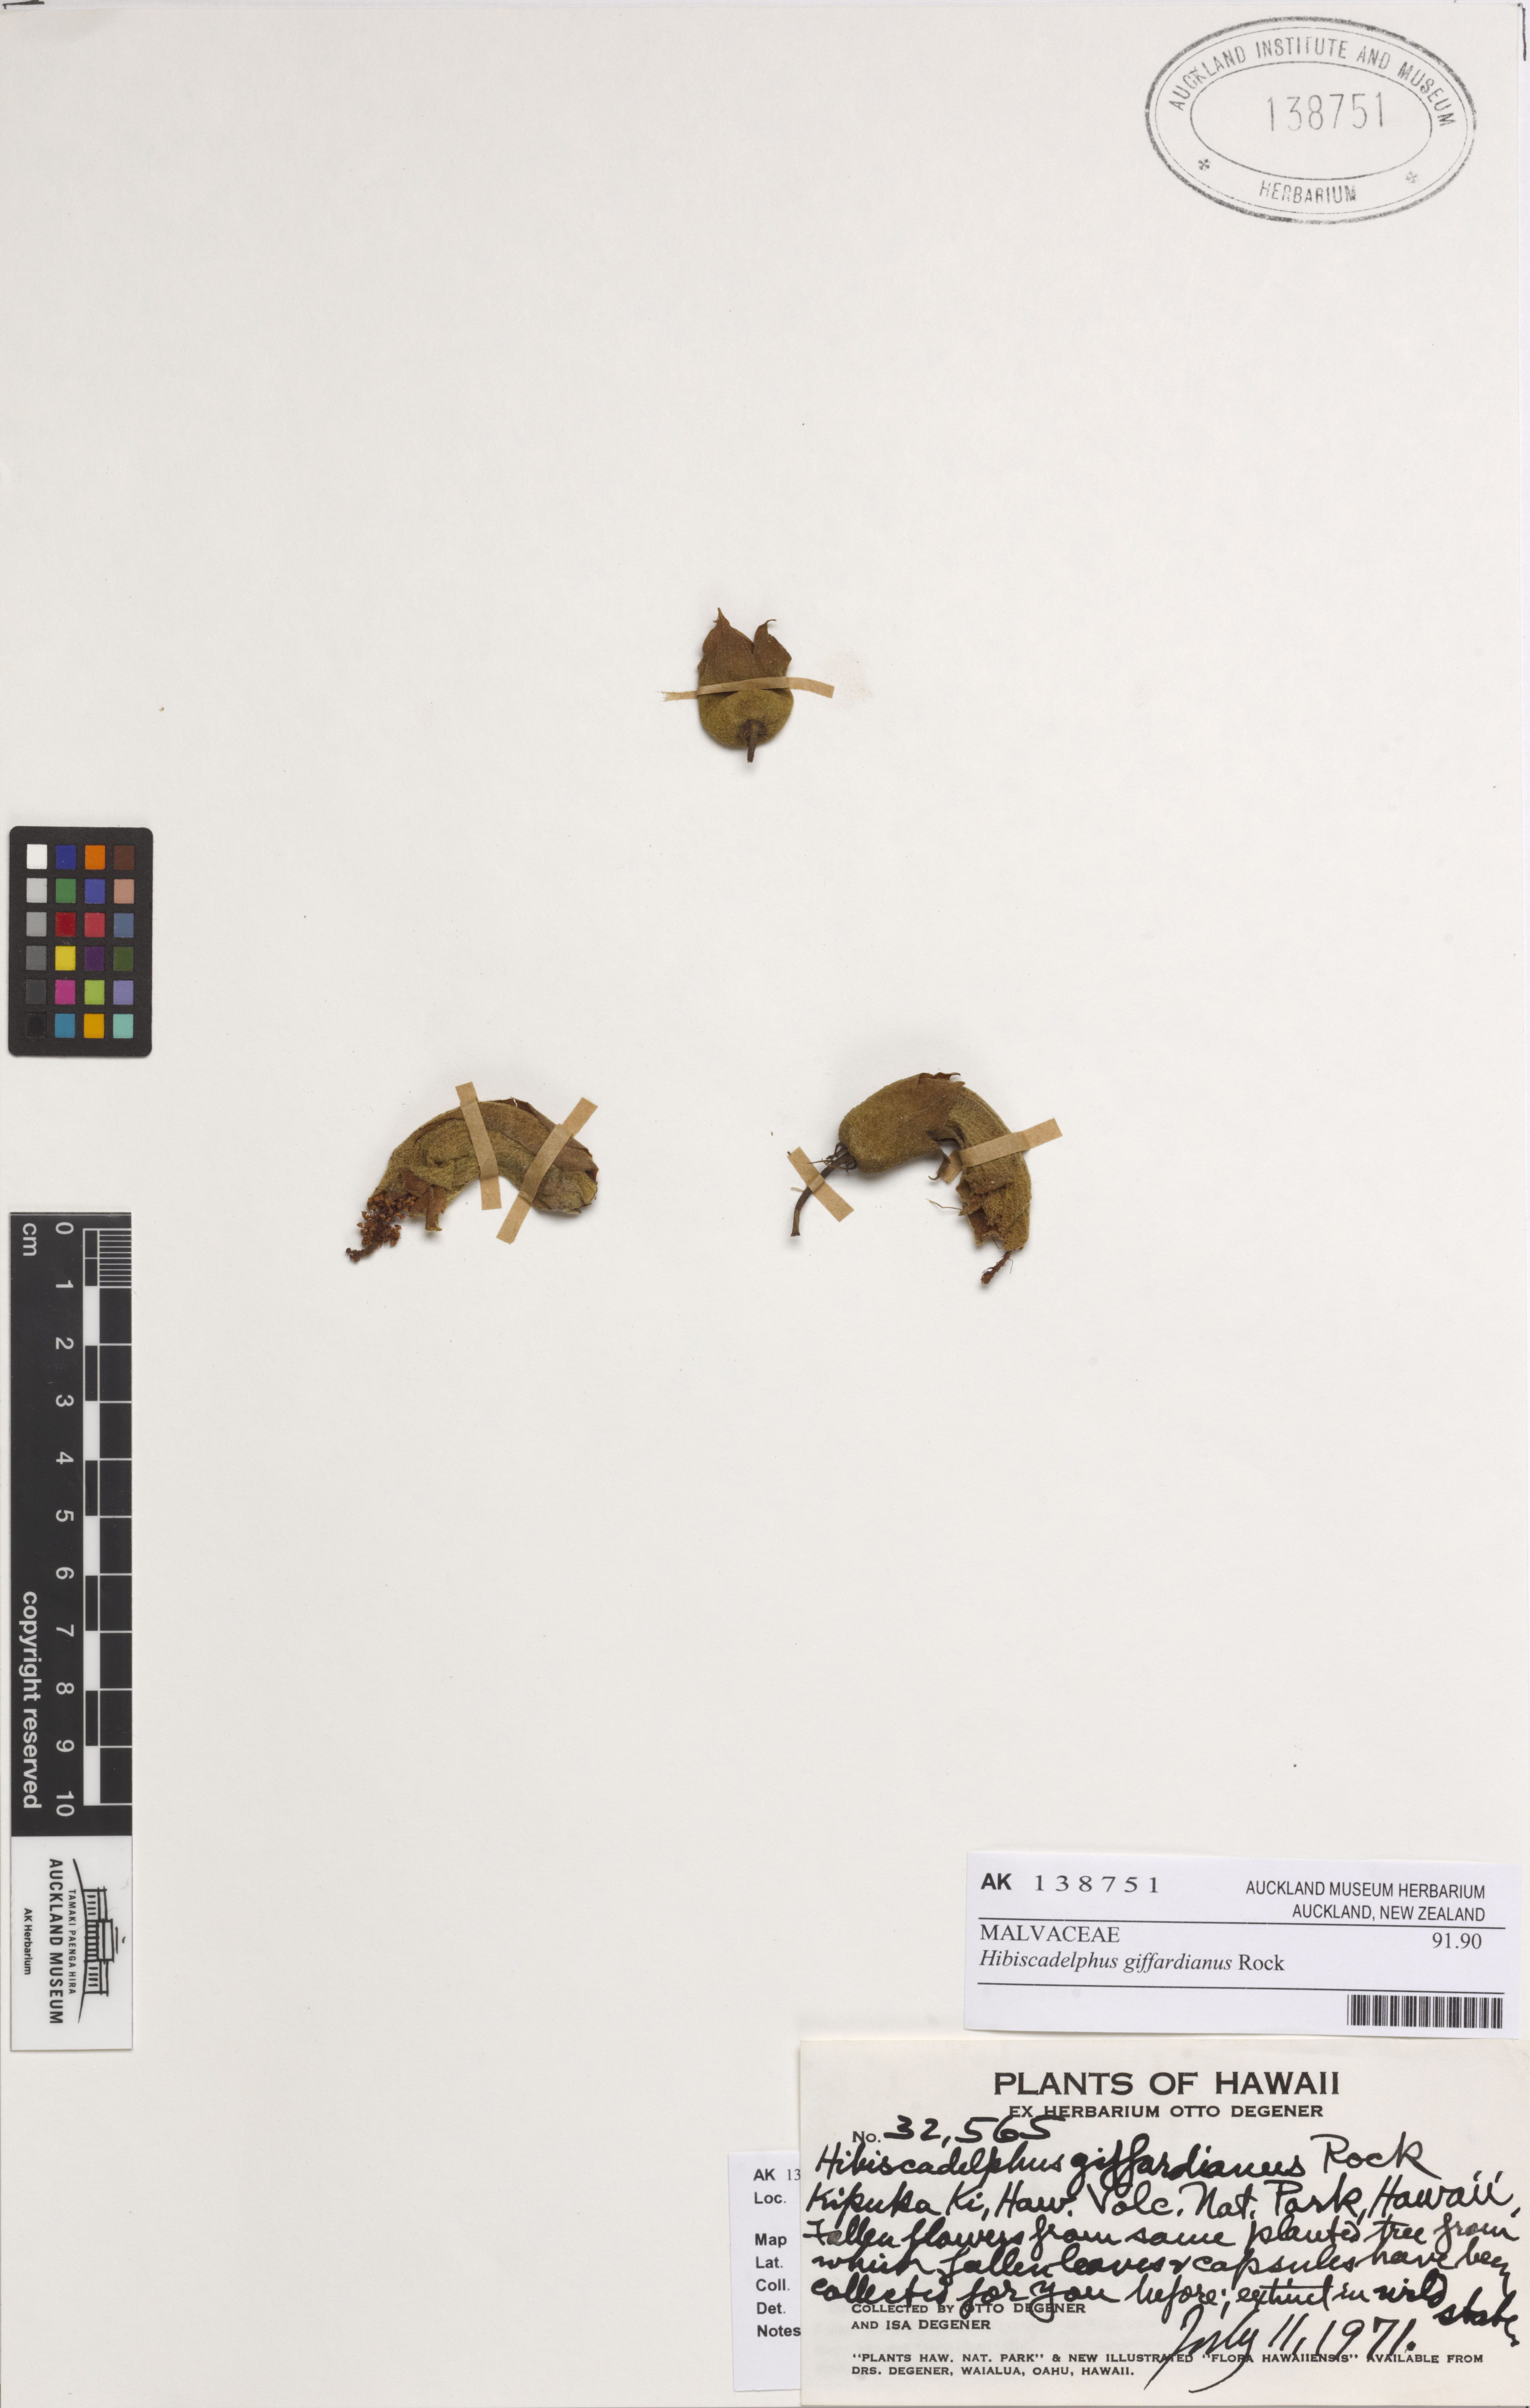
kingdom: Plantae
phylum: Tracheophyta
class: Magnoliopsida
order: Malvales
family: Malvaceae
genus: Hibiscadelphus
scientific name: Hibiscadelphus giffardianus
